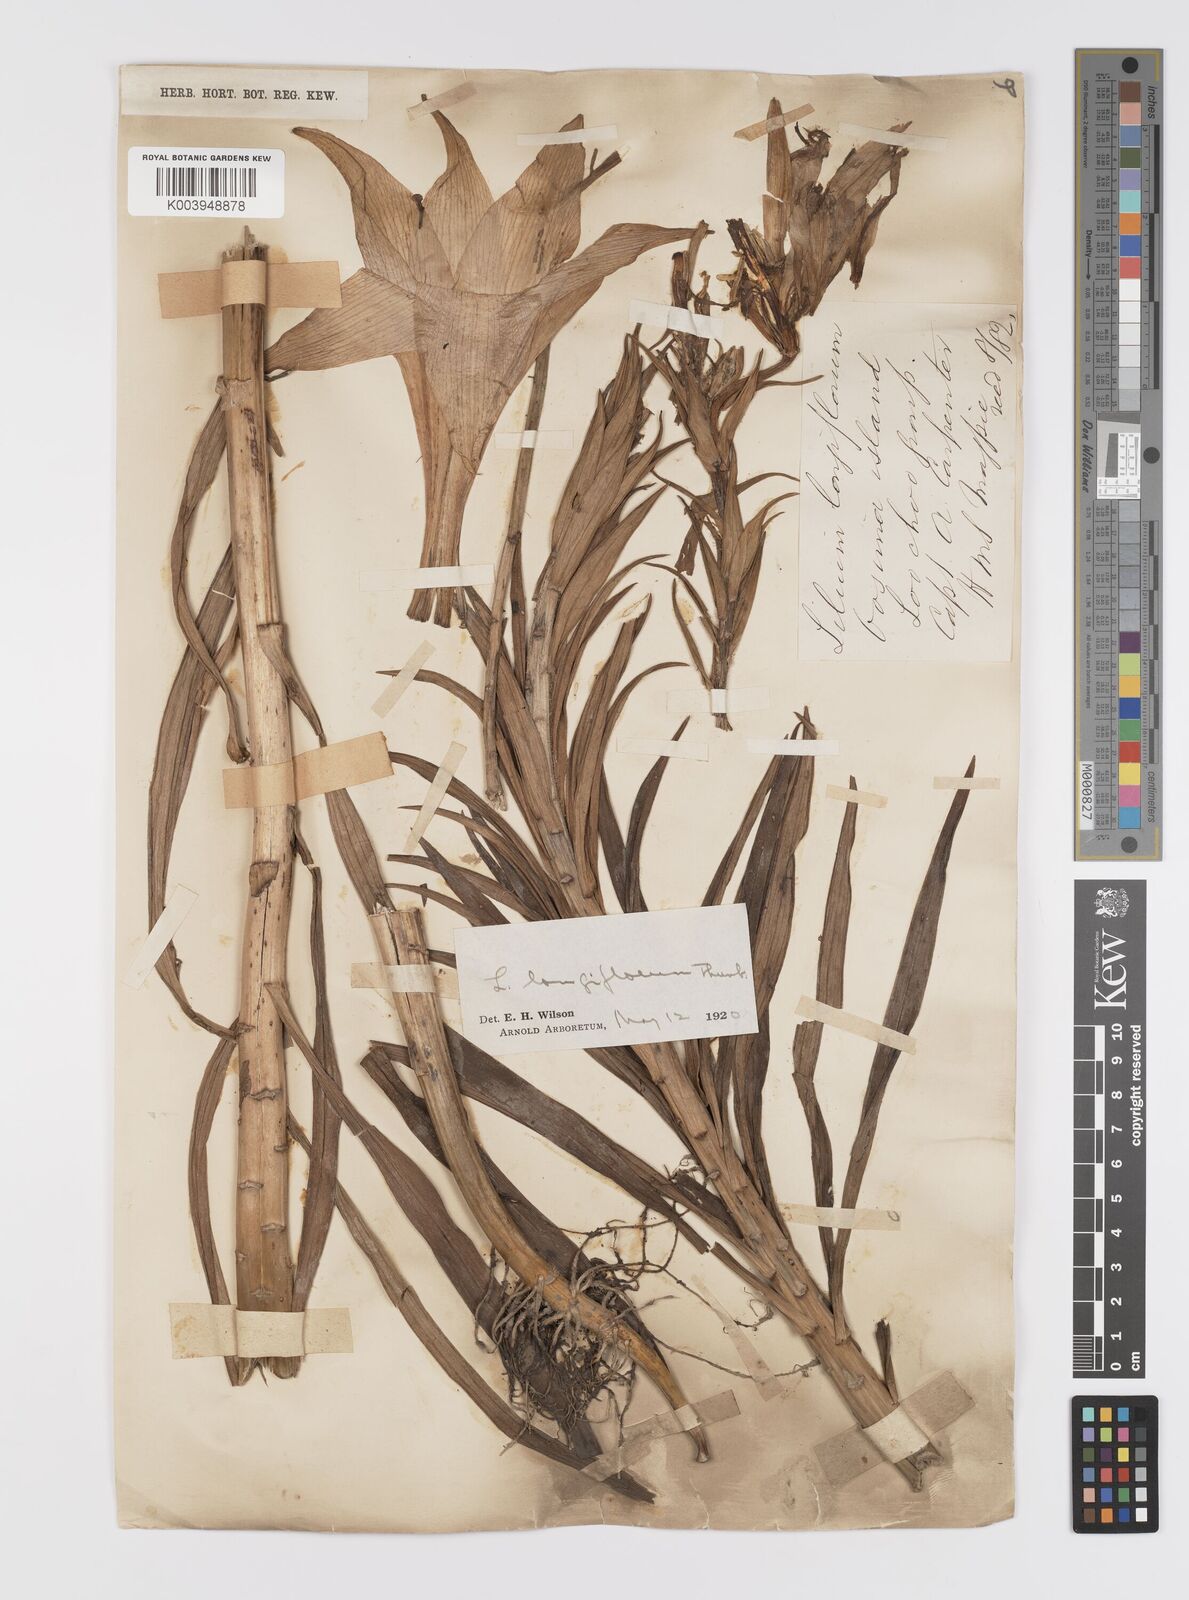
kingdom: Plantae
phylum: Tracheophyta
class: Liliopsida
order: Liliales
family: Liliaceae
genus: Lilium
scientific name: Lilium longiflorum
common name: Easter lily
